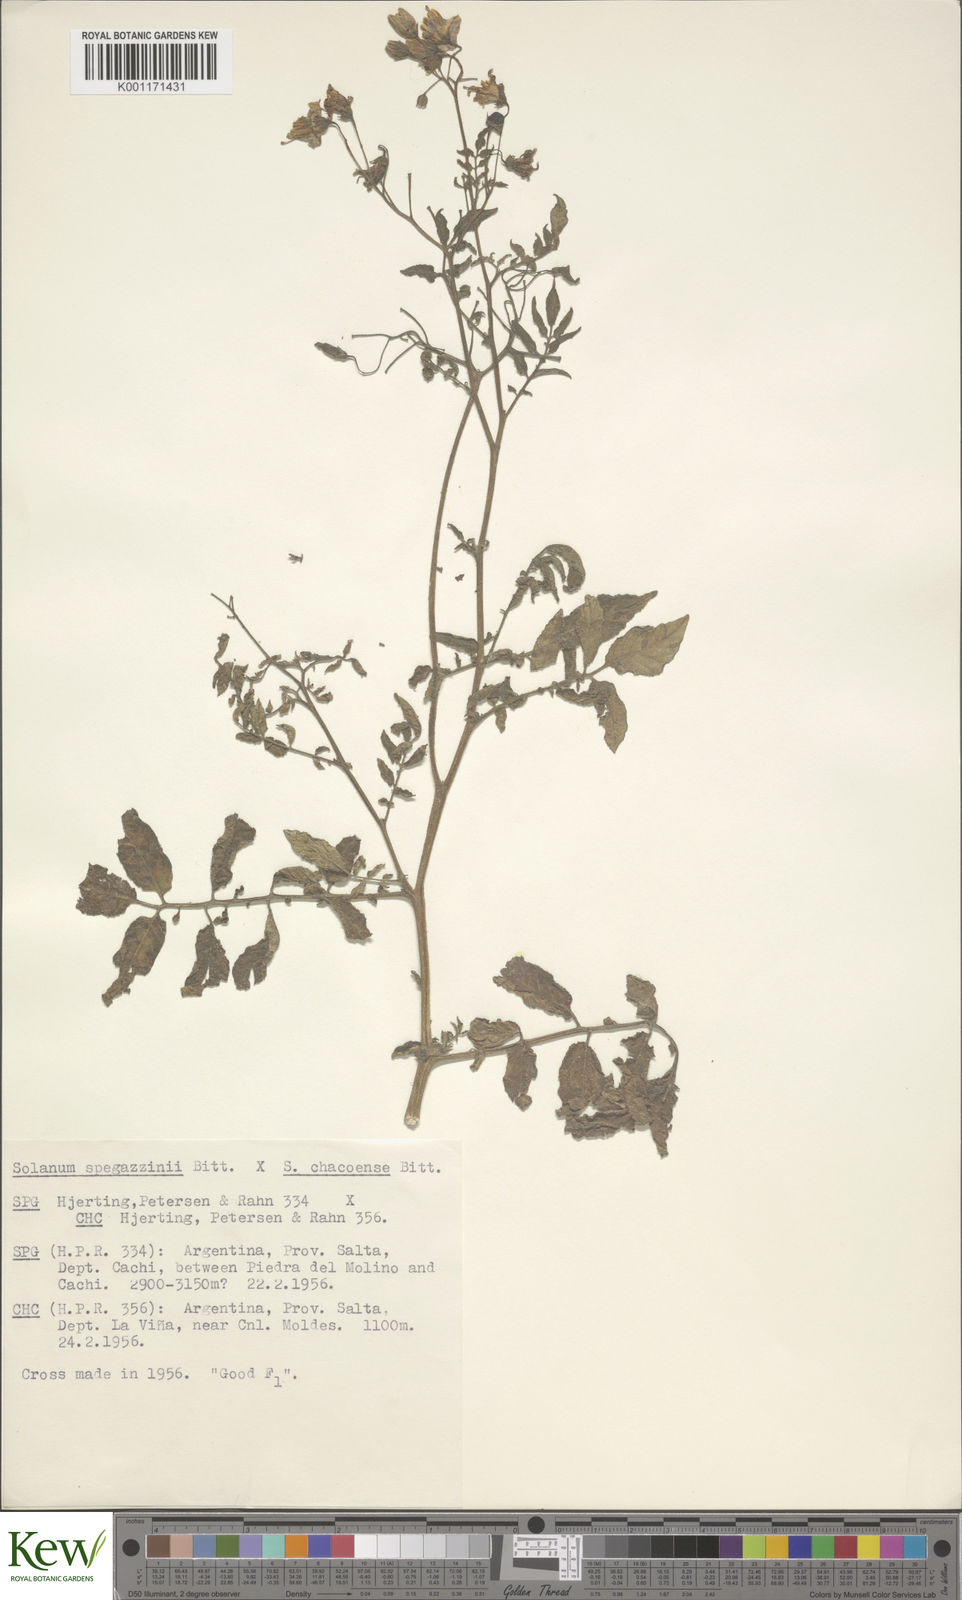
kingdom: Plantae
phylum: Tracheophyta
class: Magnoliopsida
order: Solanales
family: Solanaceae
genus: Solanum
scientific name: Solanum brevicaule
